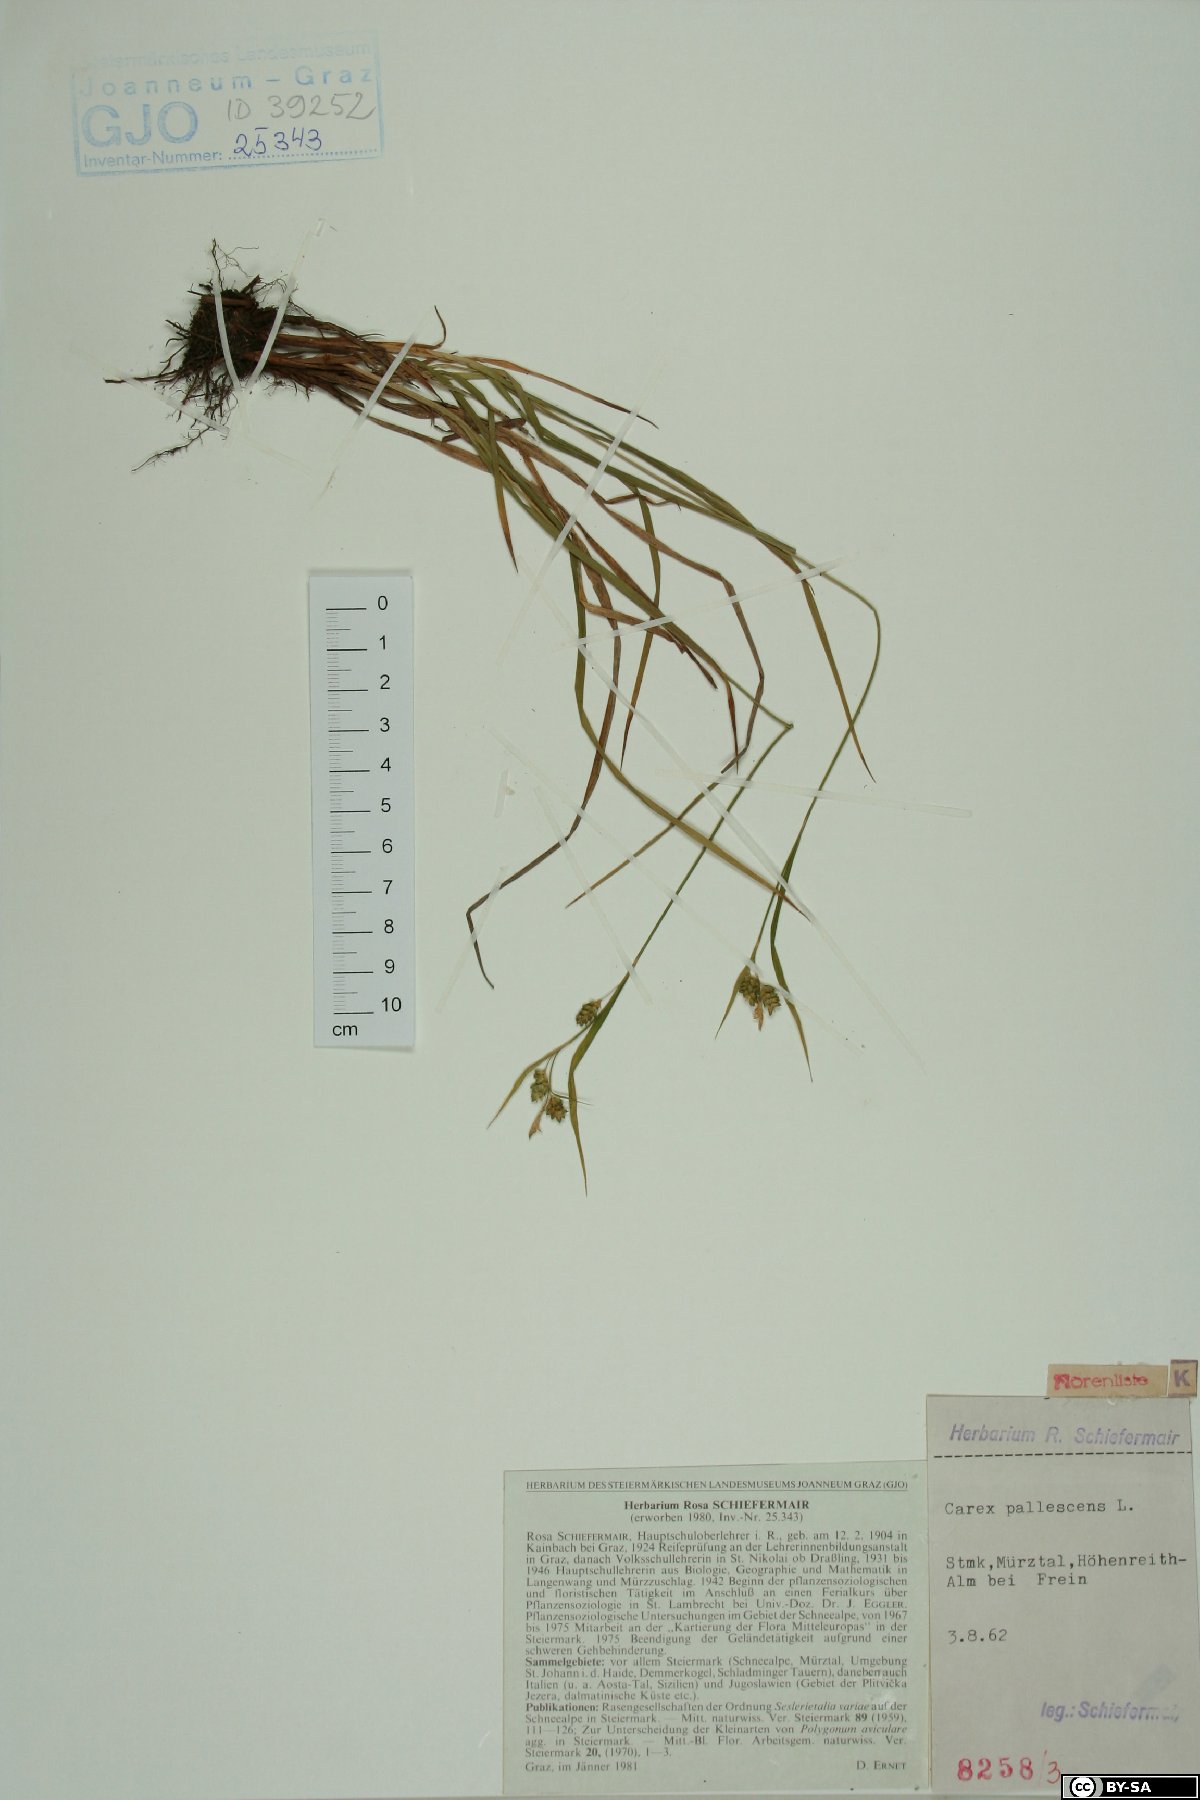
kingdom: Plantae
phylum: Tracheophyta
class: Liliopsida
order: Poales
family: Cyperaceae
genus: Carex
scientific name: Carex pallescens
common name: Pale sedge
